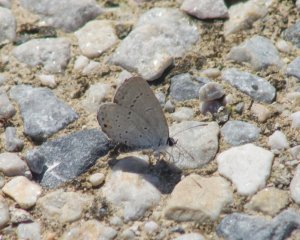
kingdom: Animalia
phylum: Arthropoda
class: Insecta
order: Lepidoptera
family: Lycaenidae
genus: Elkalyce
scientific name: Elkalyce comyntas
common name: Eastern Tailed-Blue
